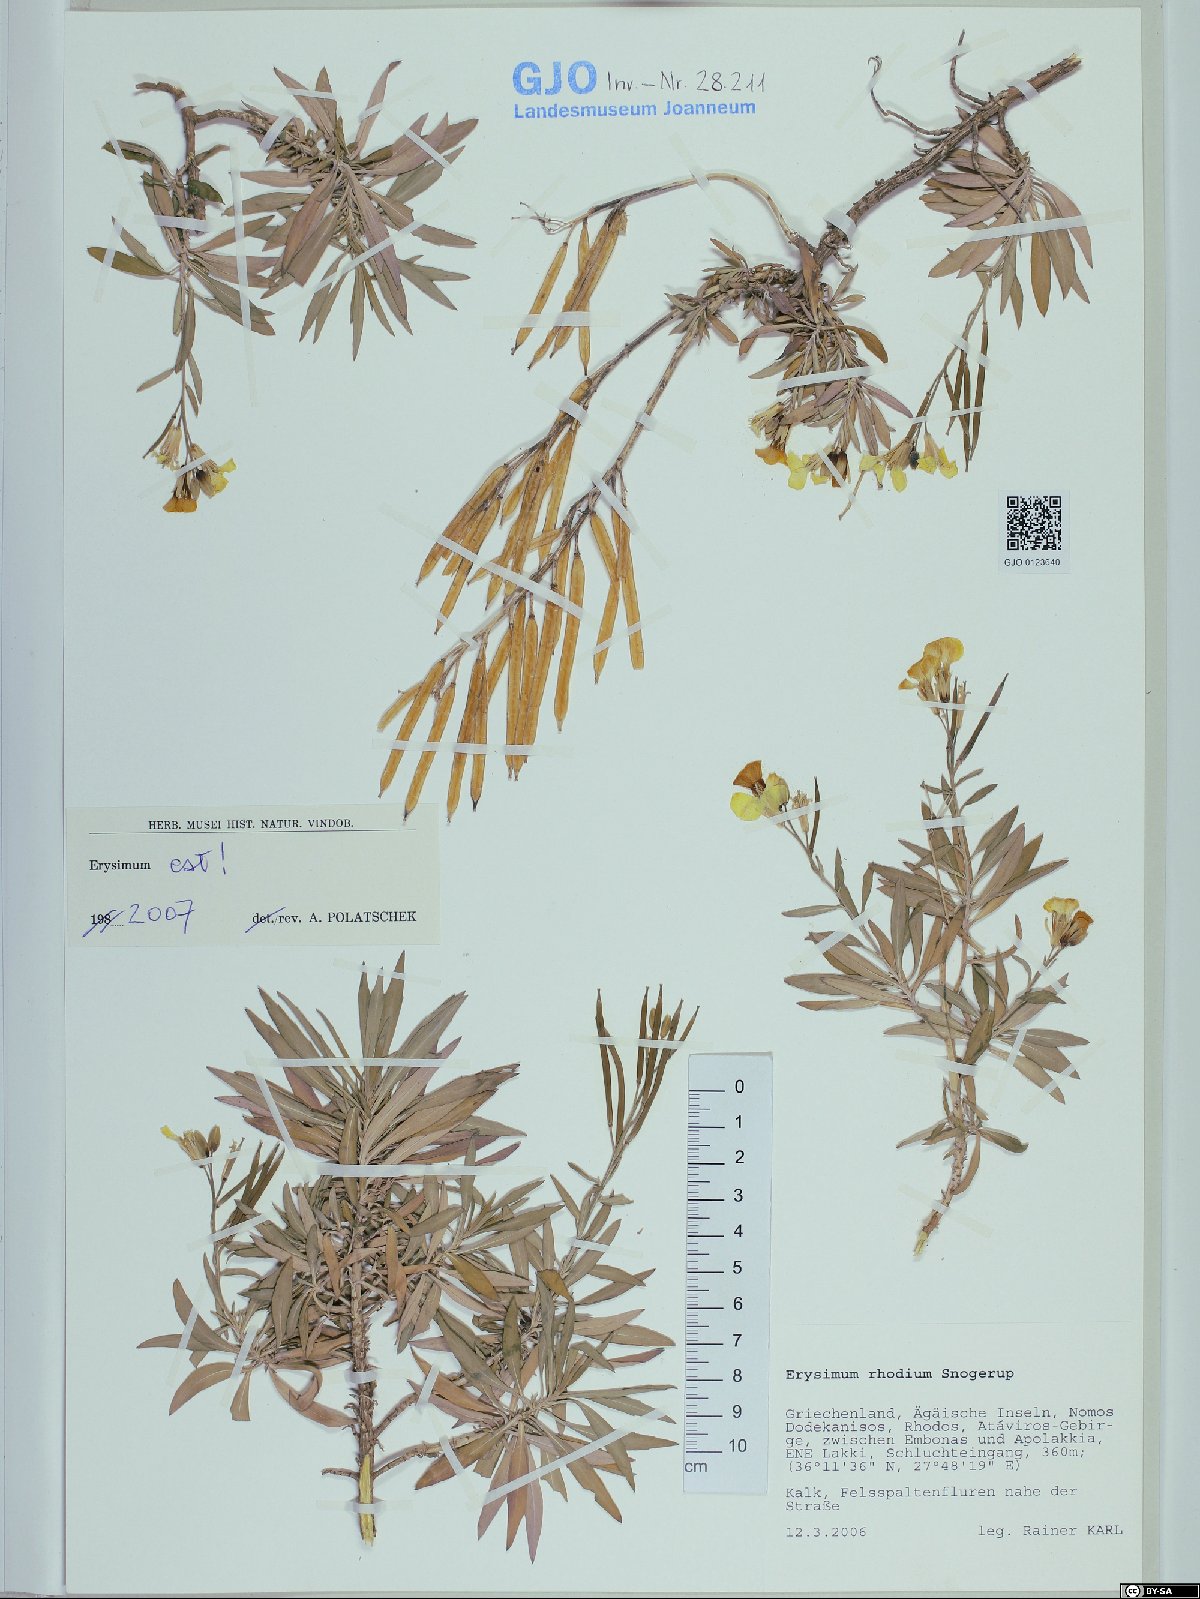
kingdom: Plantae
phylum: Tracheophyta
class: Magnoliopsida
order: Brassicales
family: Brassicaceae
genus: Erysimum
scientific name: Erysimum rhodium
